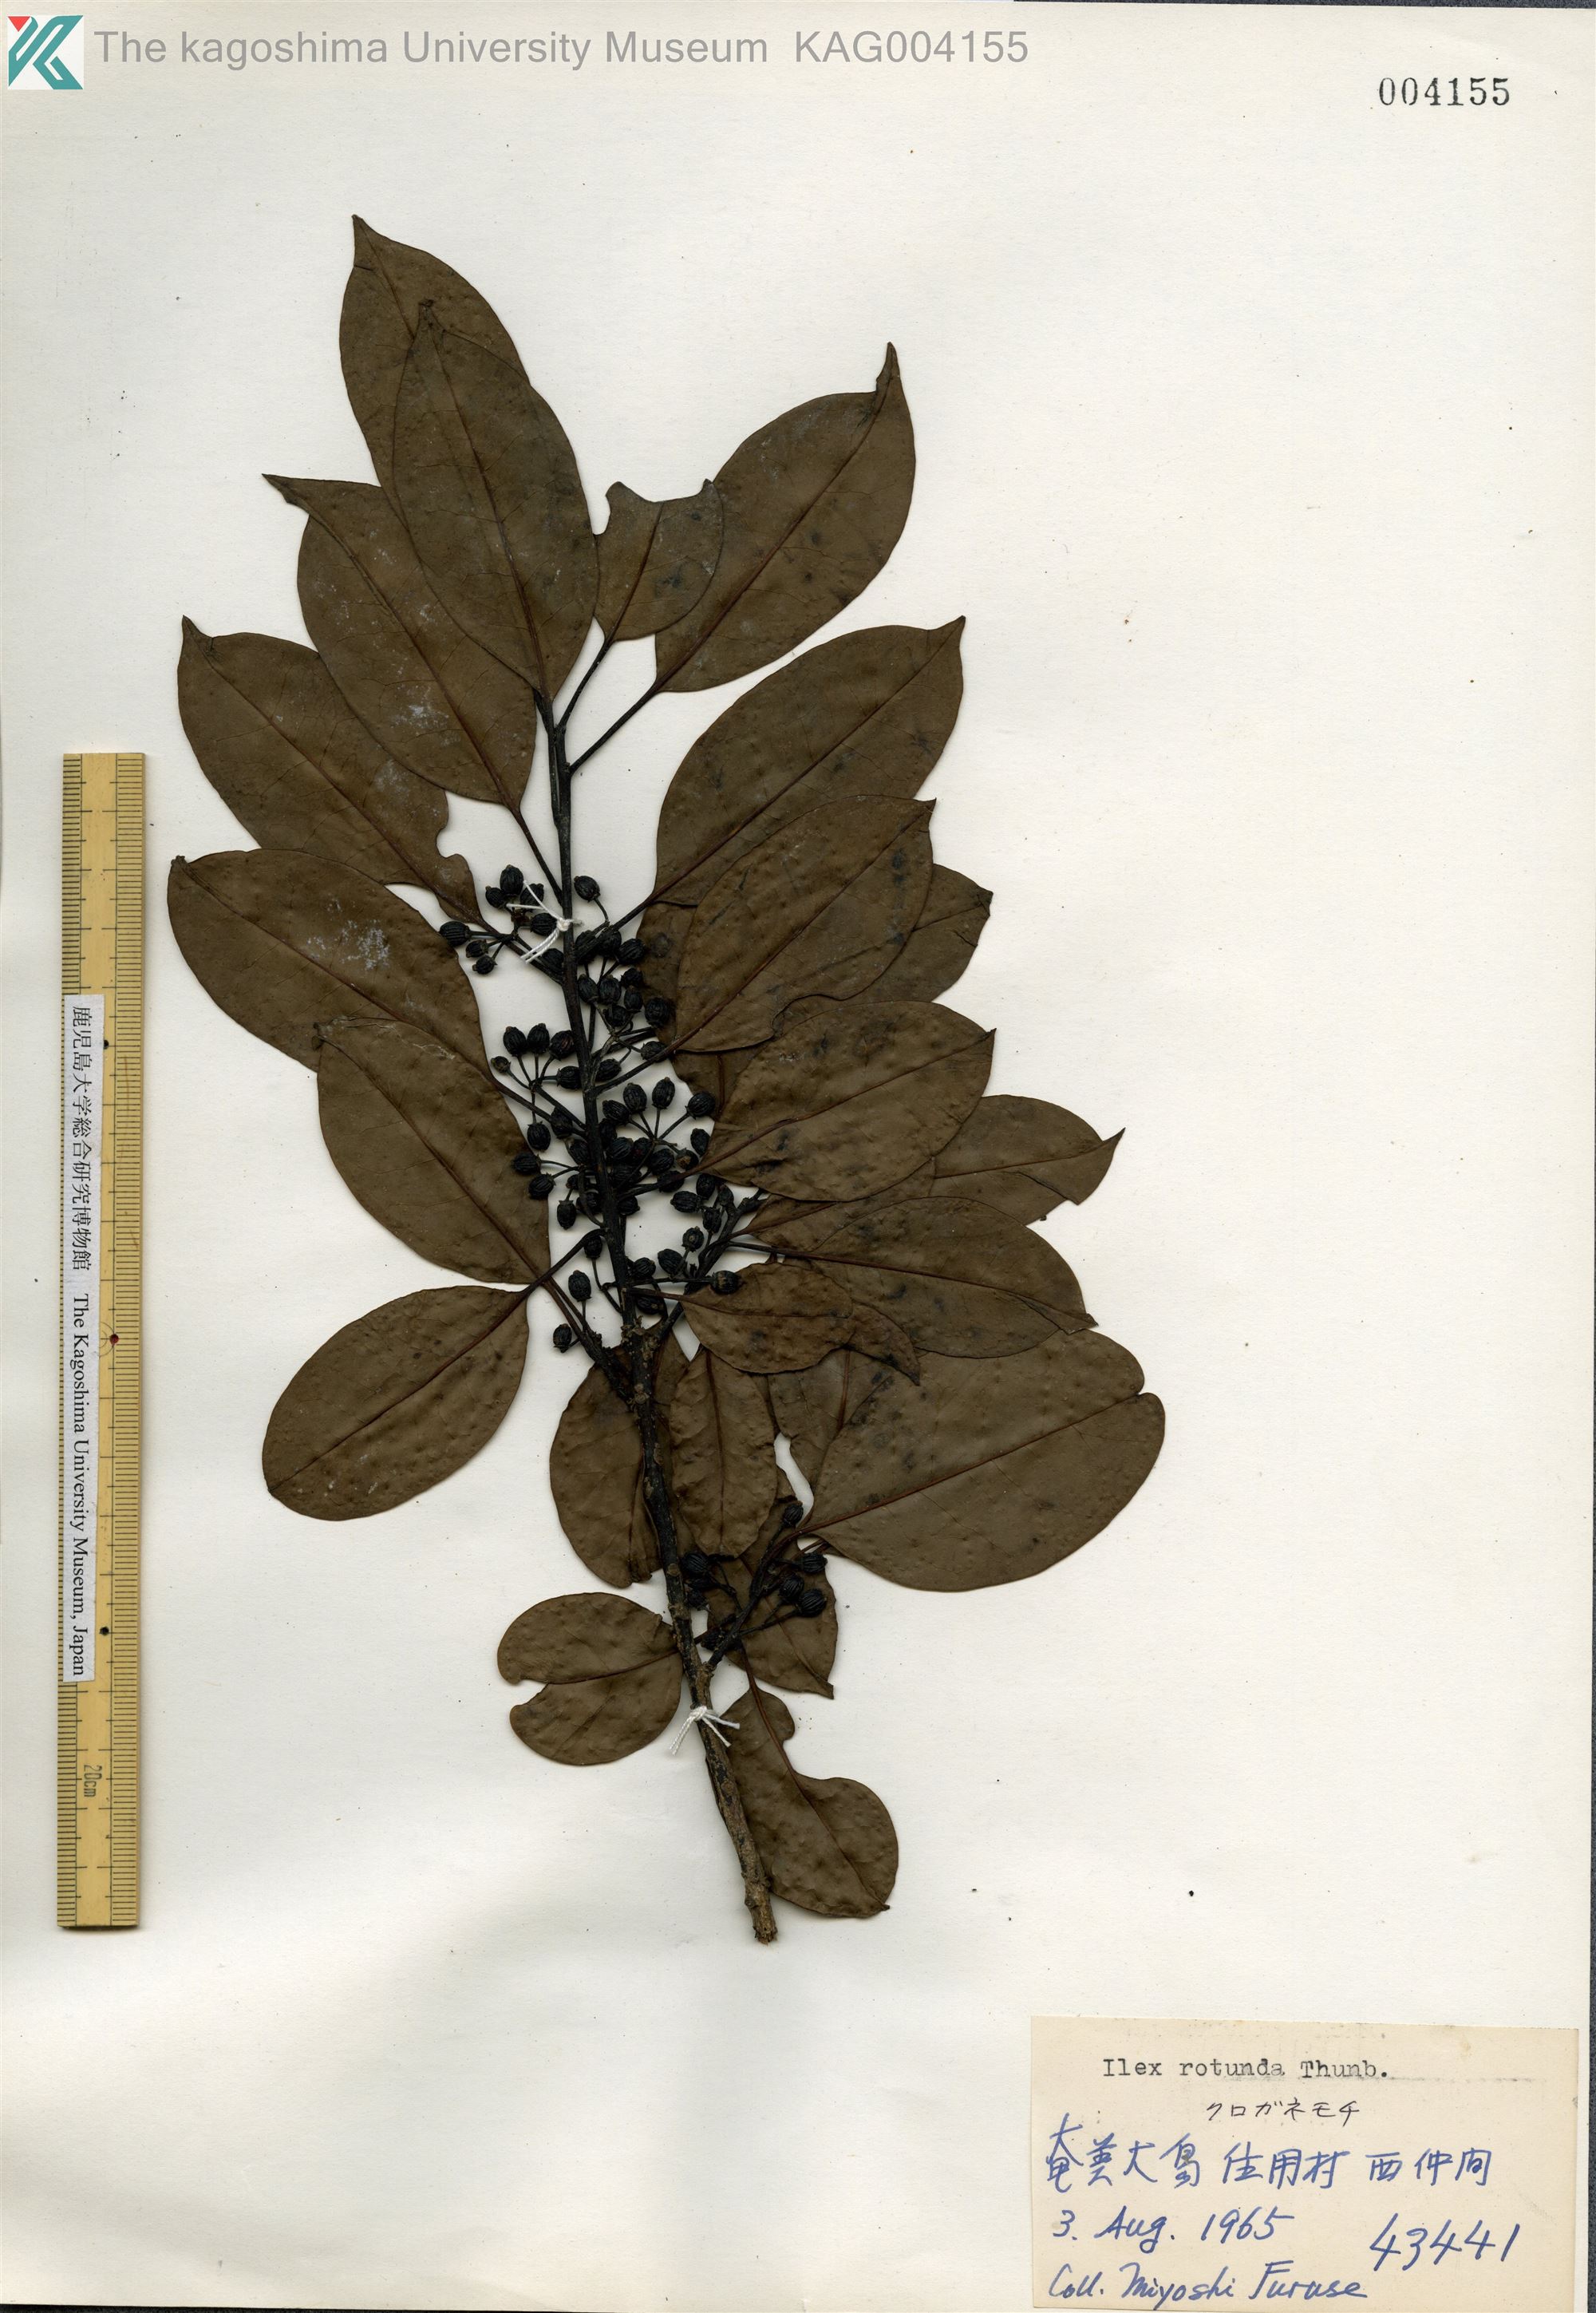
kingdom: Plantae
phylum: Tracheophyta
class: Magnoliopsida
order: Aquifoliales
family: Aquifoliaceae
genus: Ilex
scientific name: Ilex rotunda
